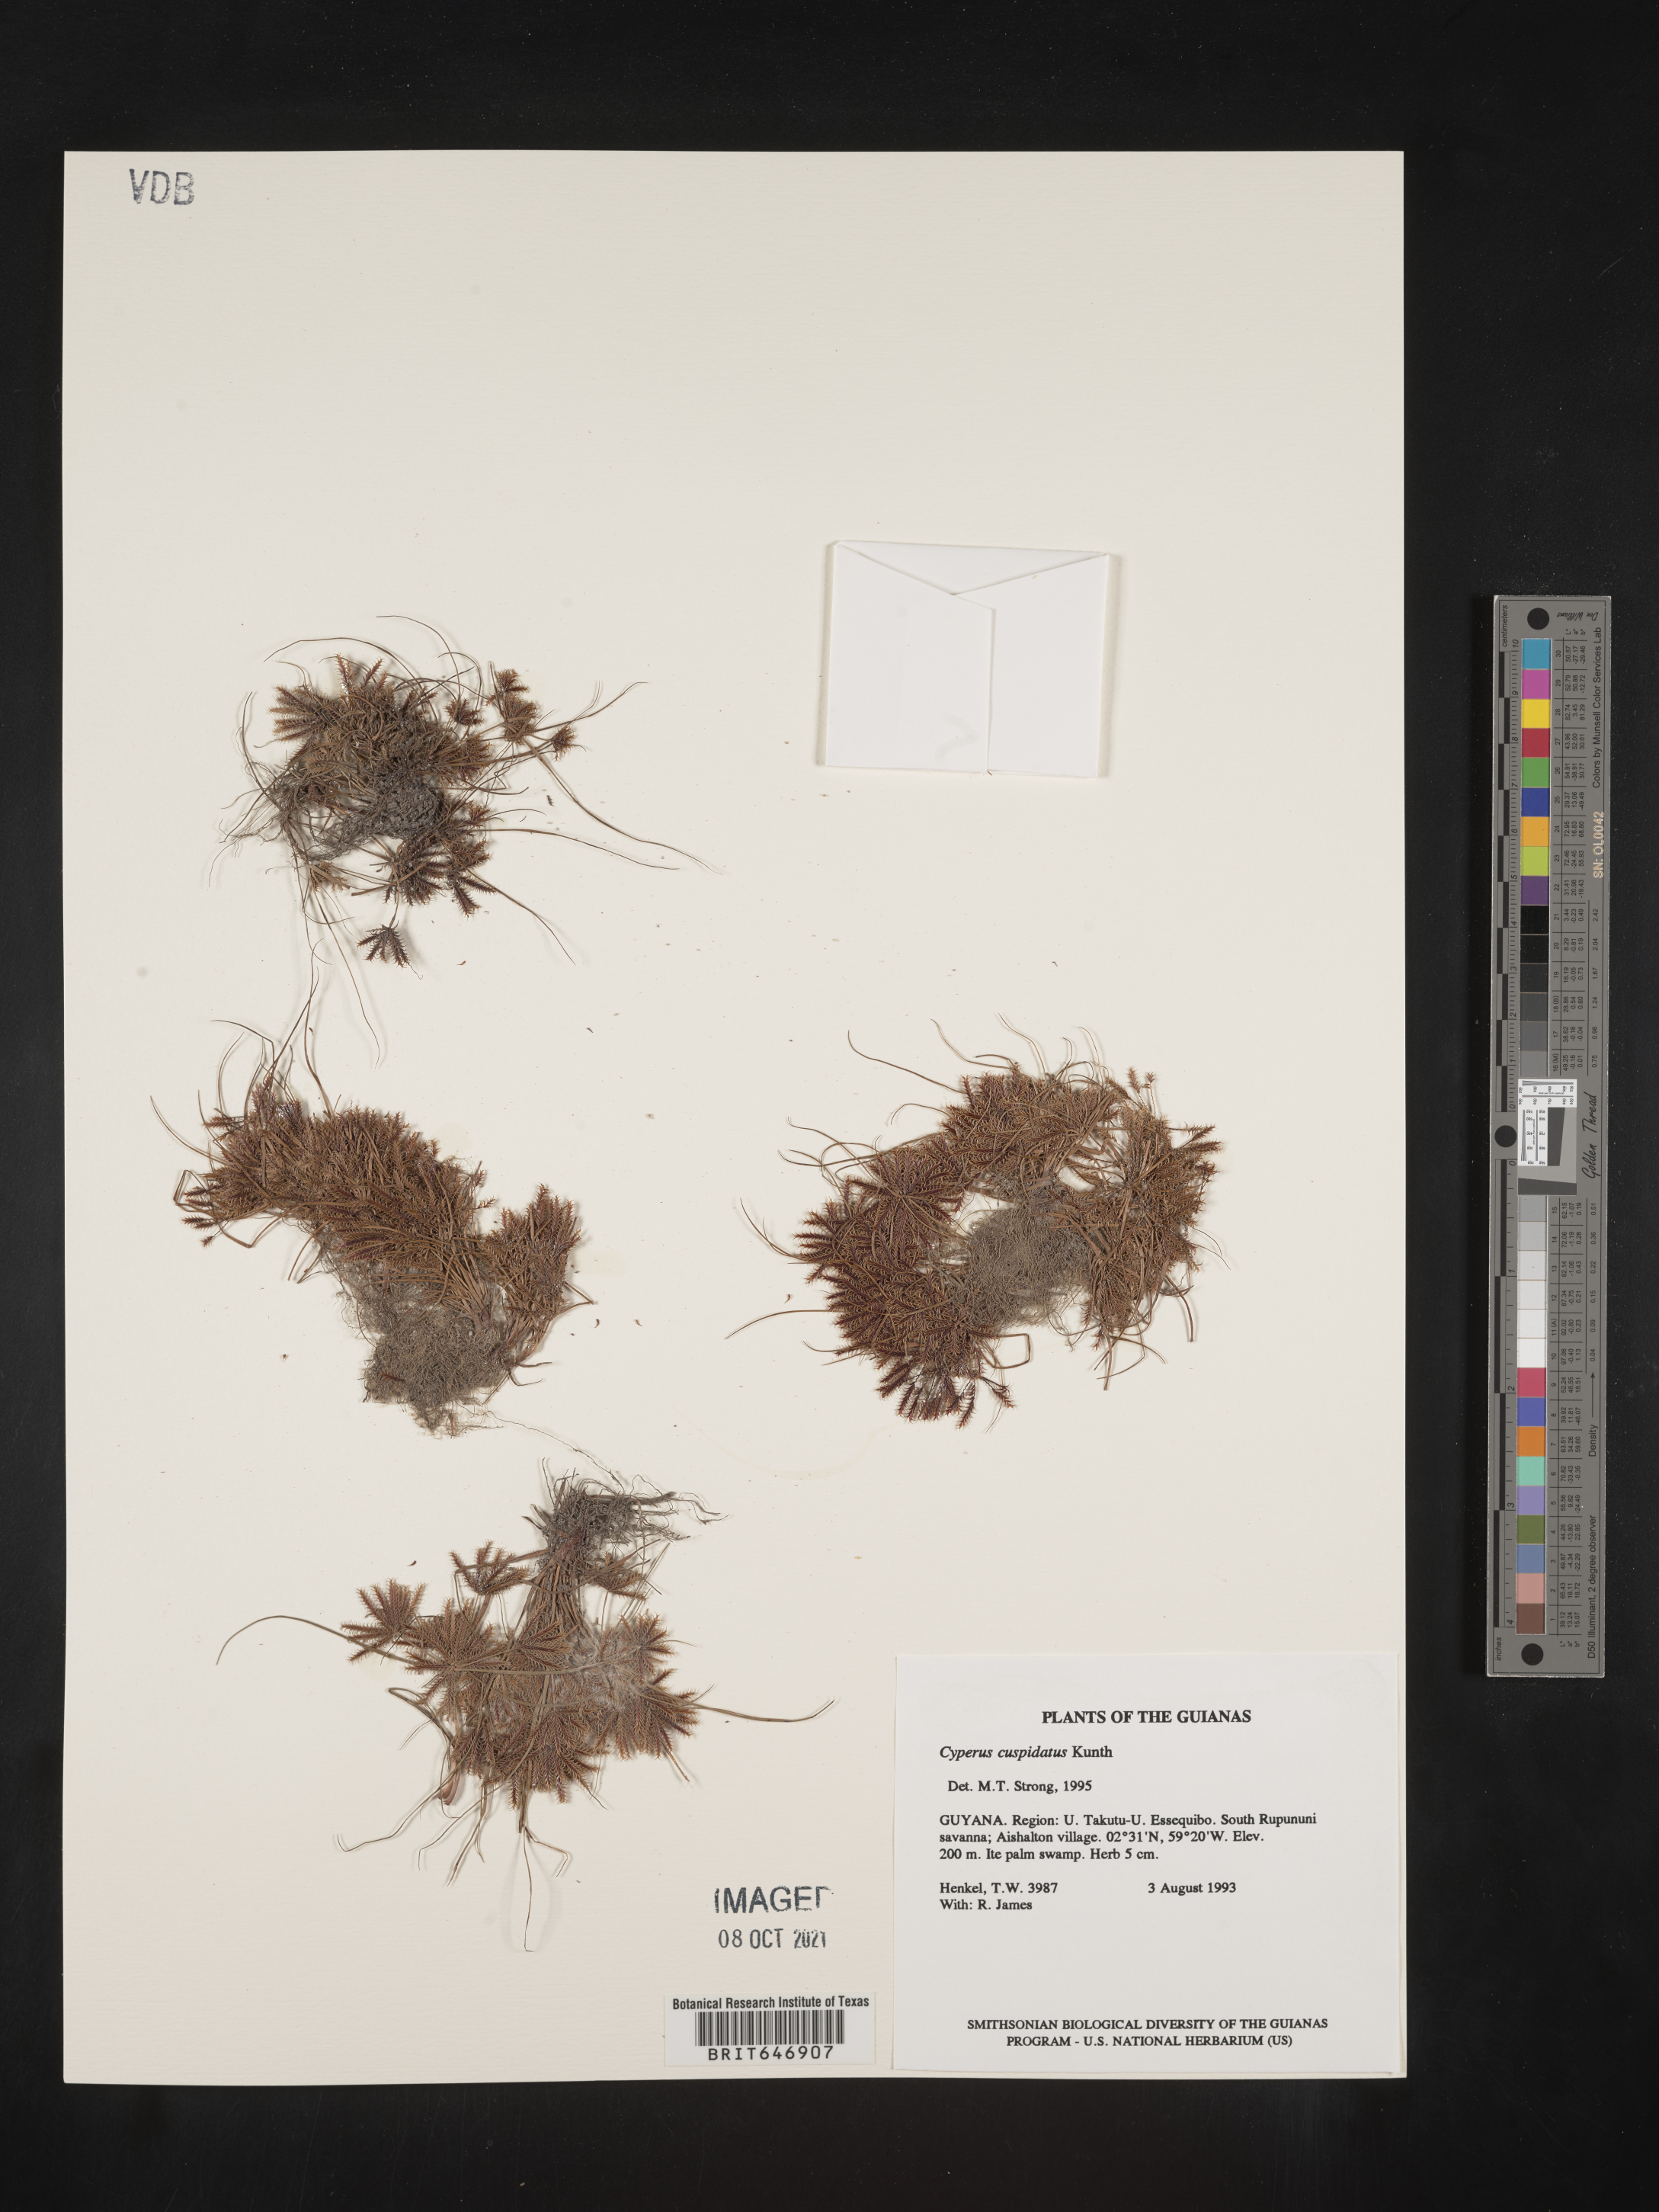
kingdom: Plantae
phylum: Tracheophyta
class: Liliopsida
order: Poales
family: Cyperaceae
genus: Cyperus
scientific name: Cyperus cuspidatus
